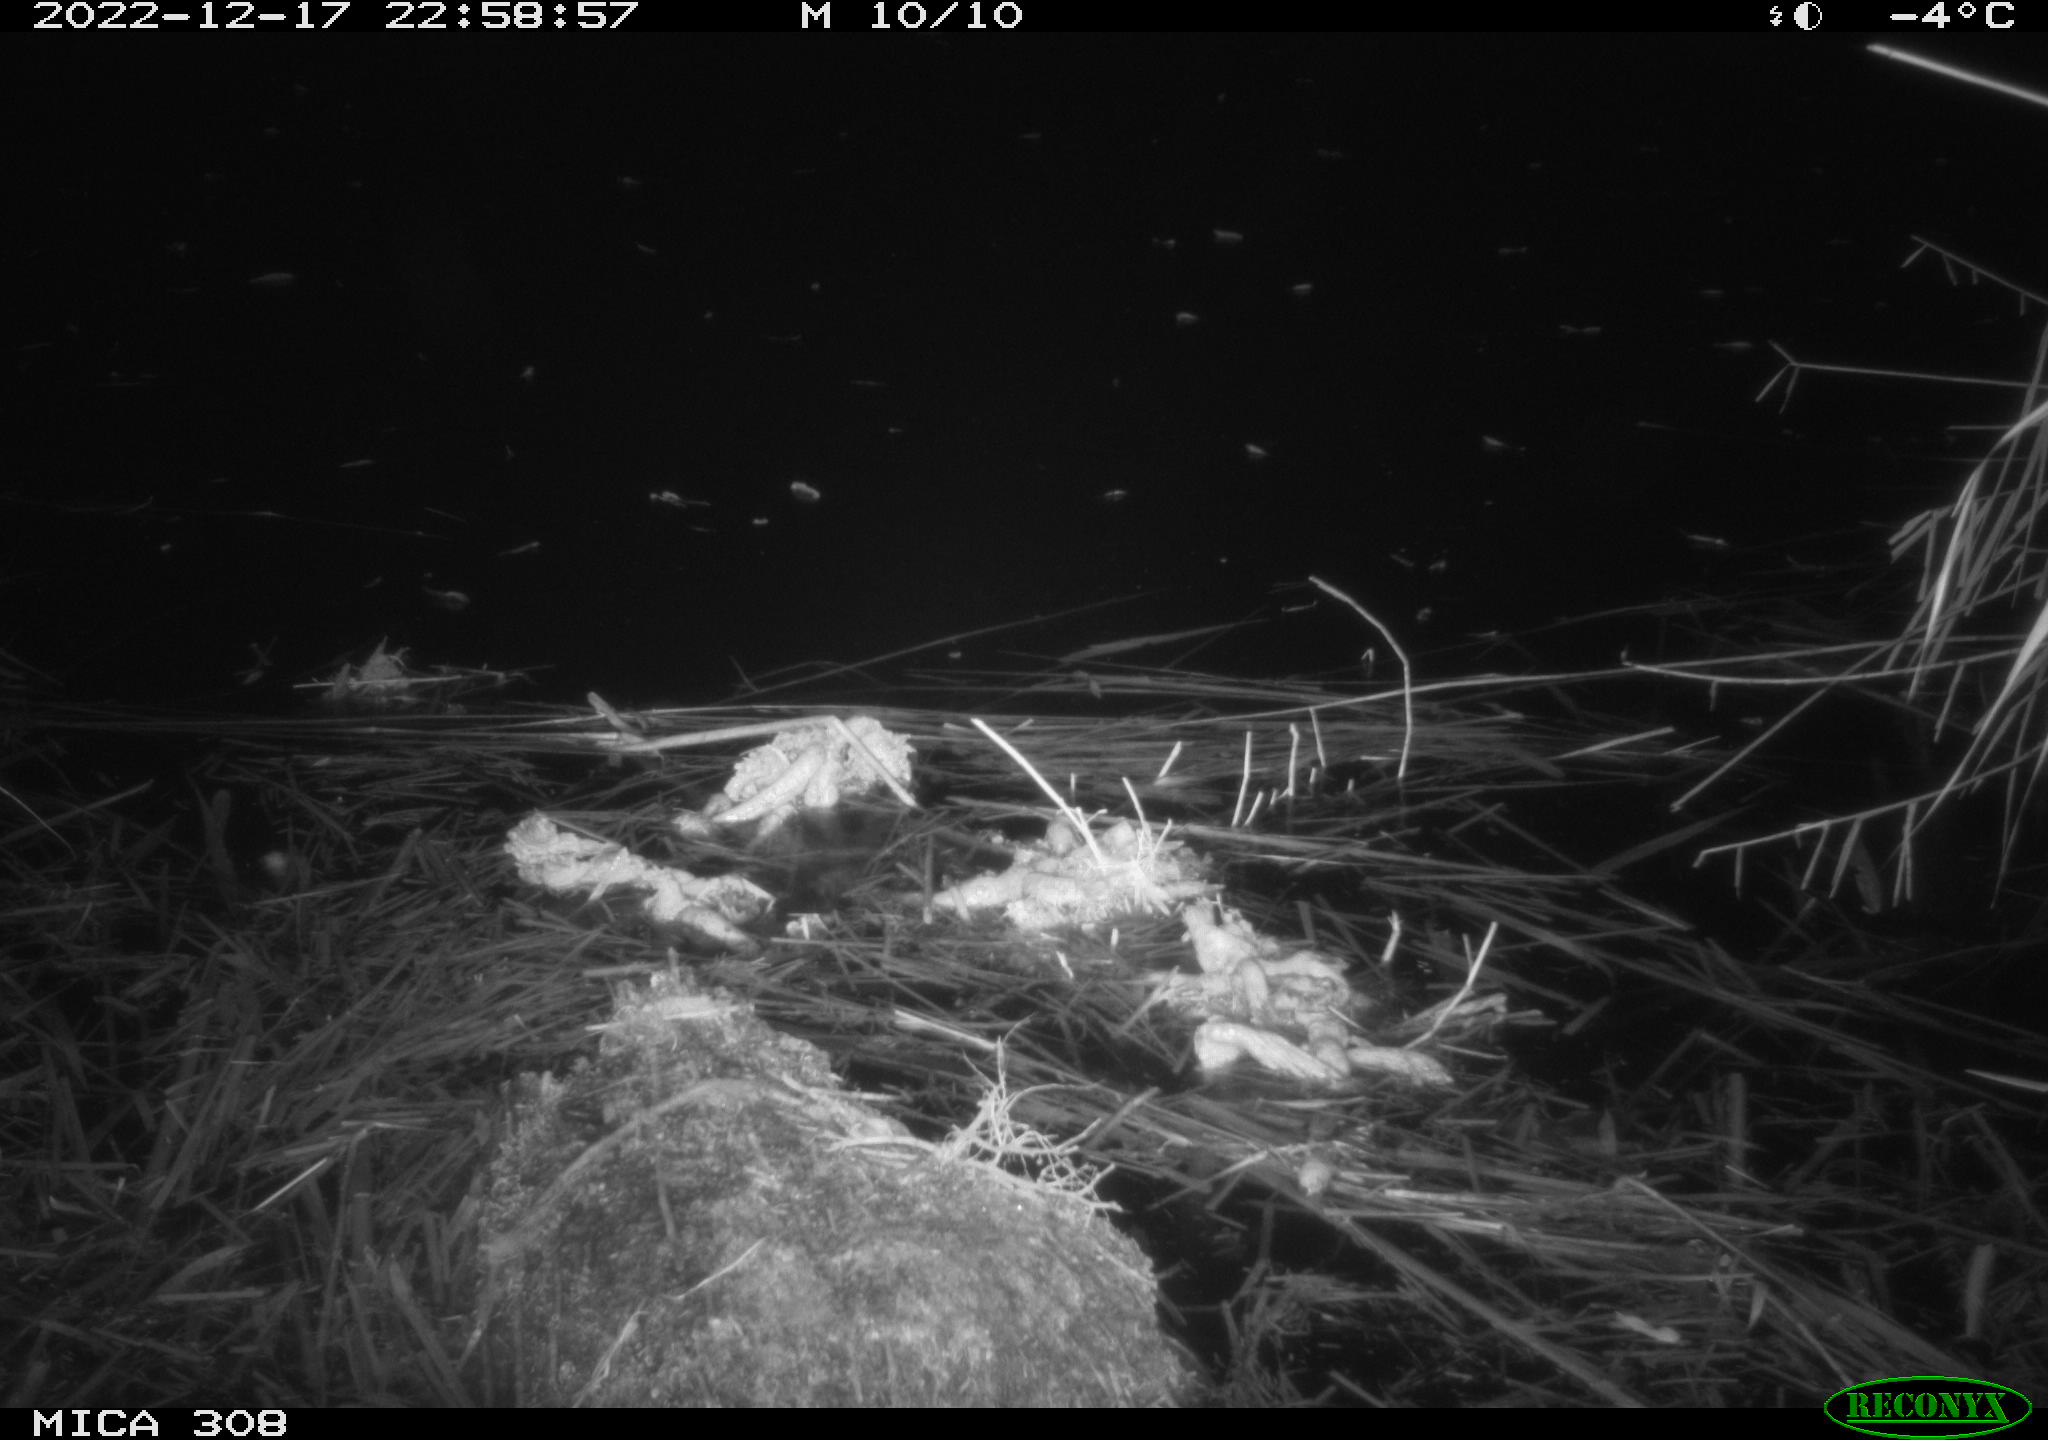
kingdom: Animalia
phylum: Chordata
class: Mammalia
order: Rodentia
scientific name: Rodentia
